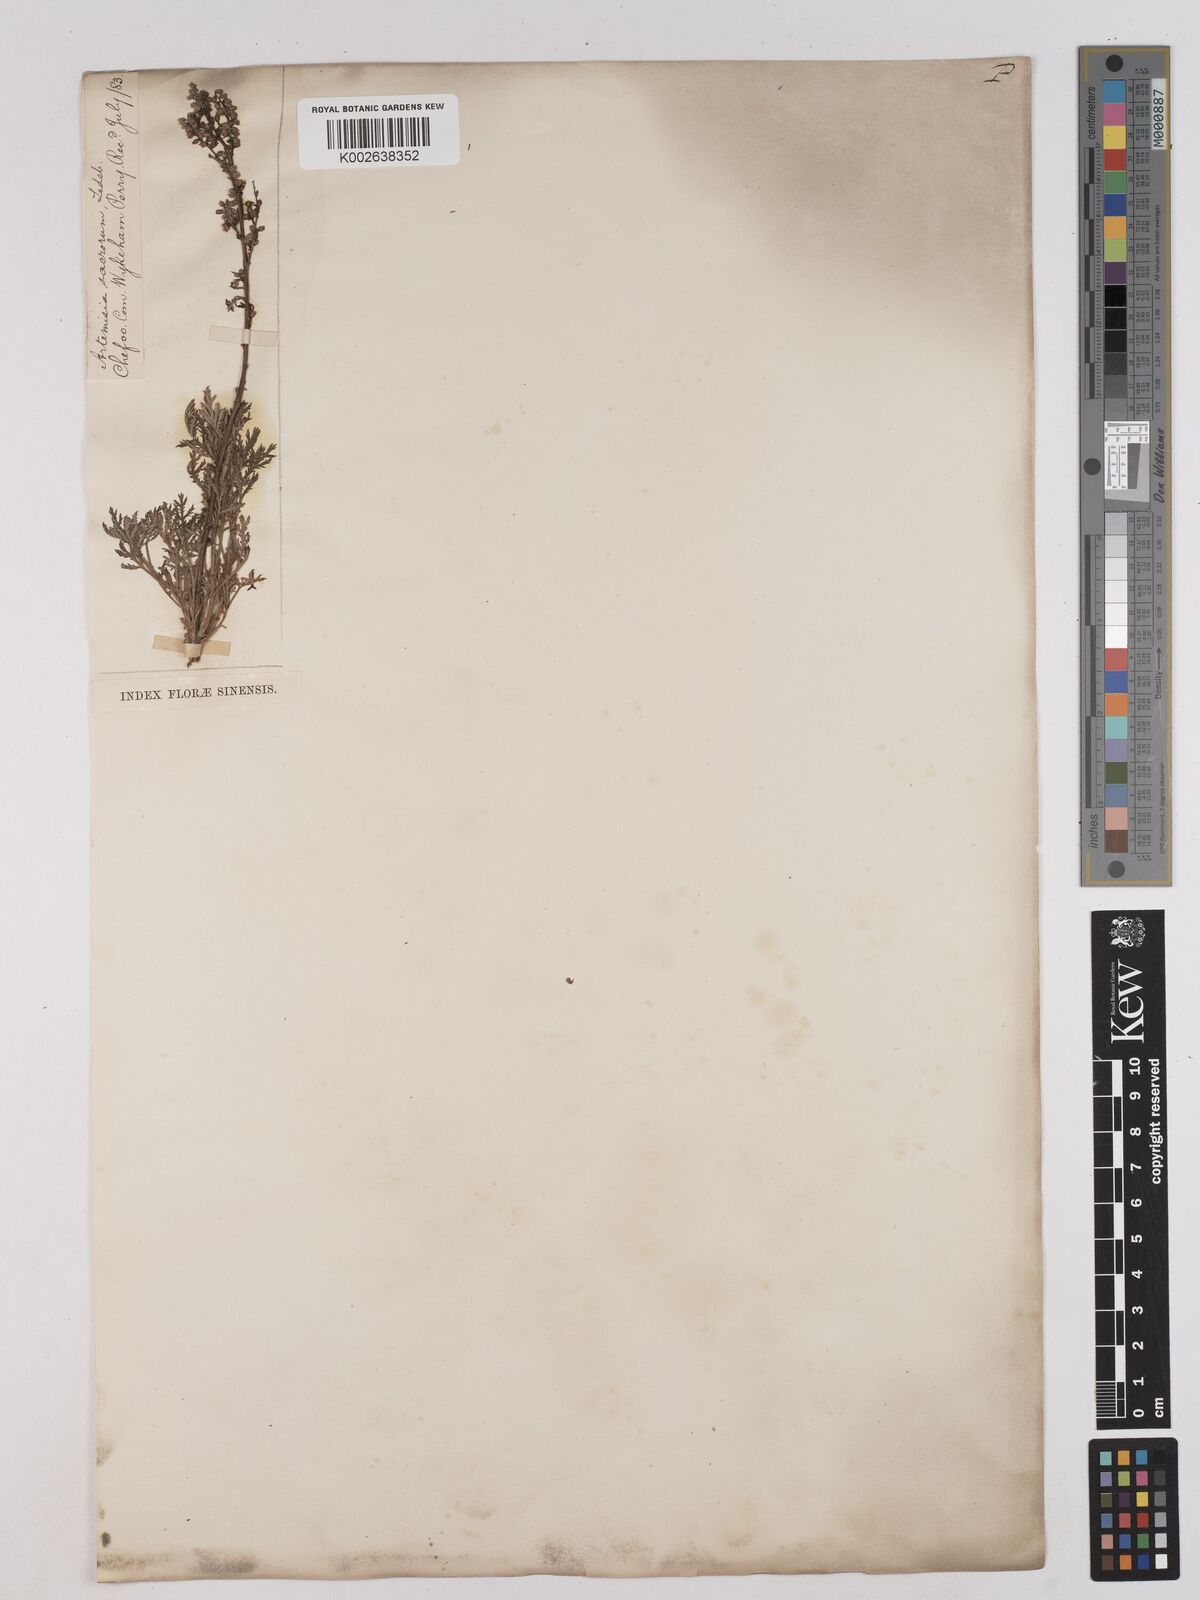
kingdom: Plantae
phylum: Tracheophyta
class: Magnoliopsida
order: Asterales
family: Asteraceae
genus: Artemisia
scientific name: Artemisia gmelinii
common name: Gmelin's wormwood
